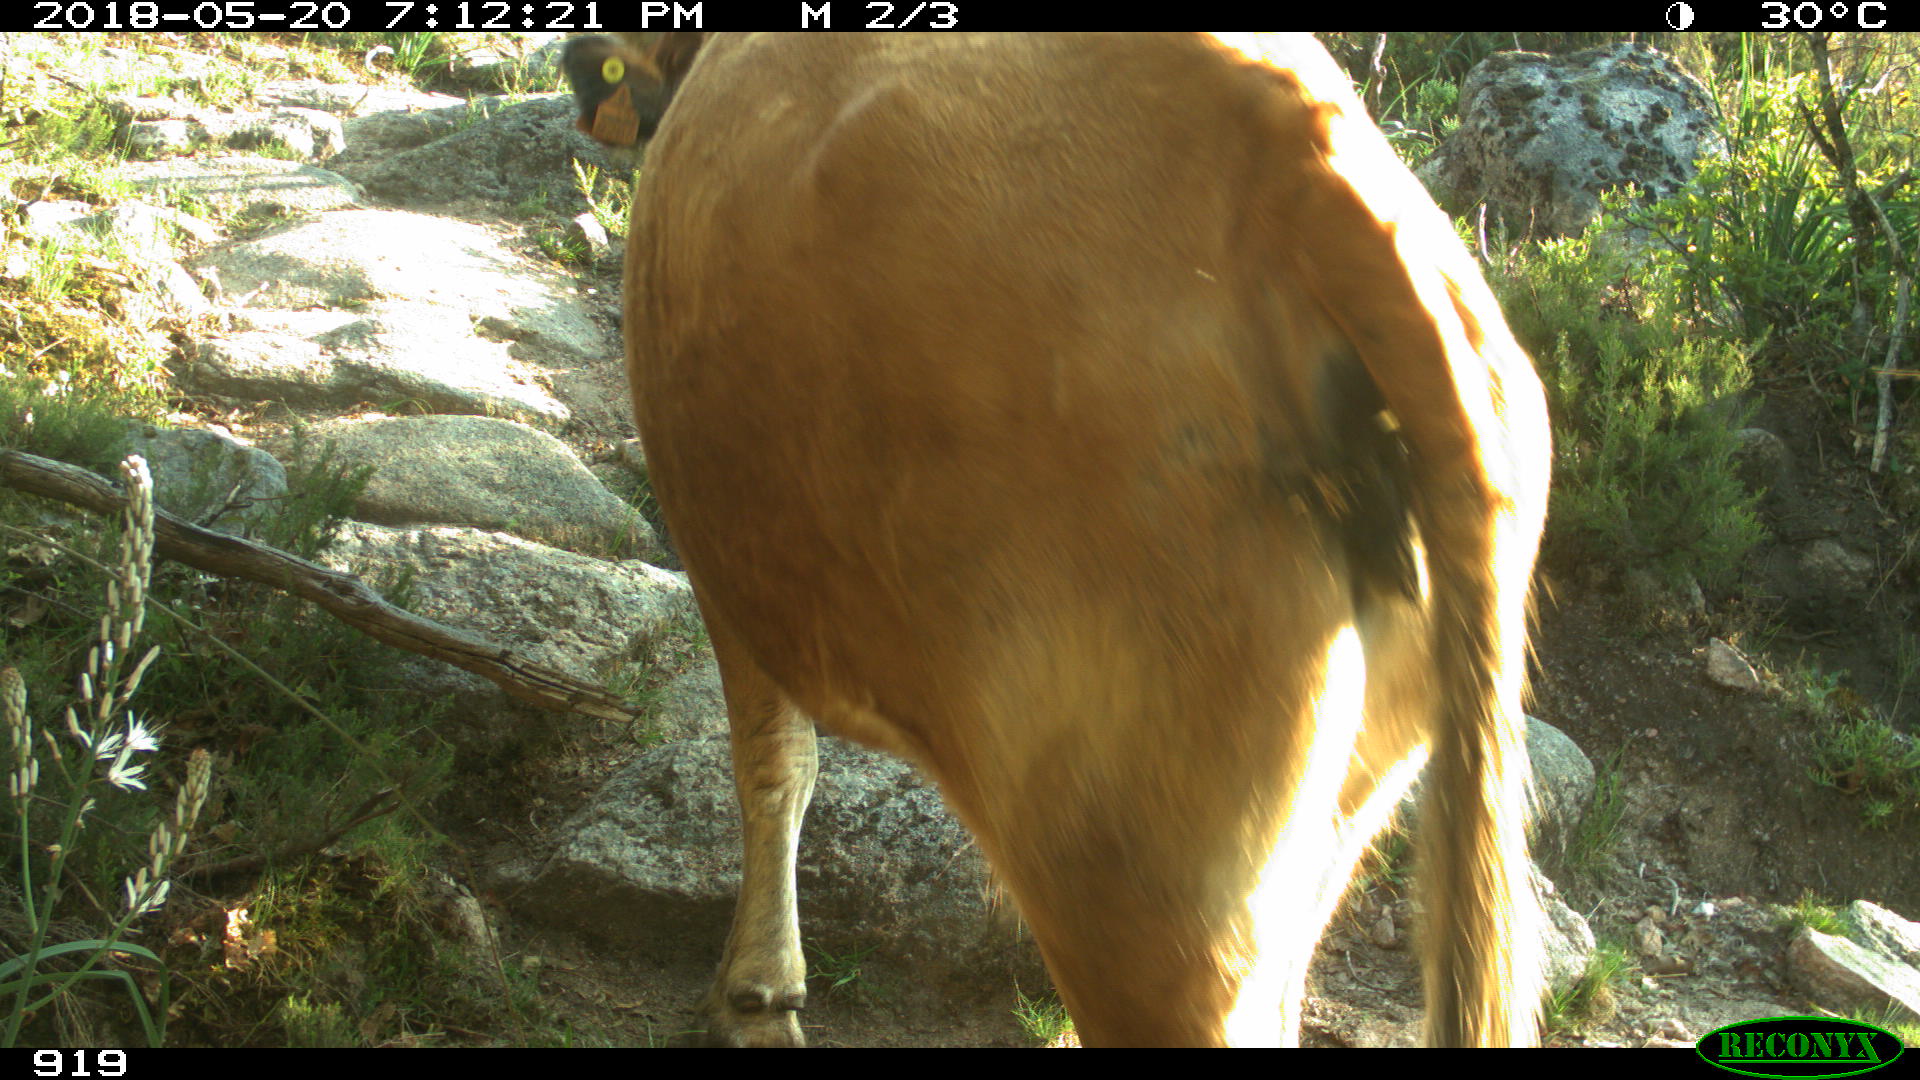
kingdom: Animalia
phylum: Chordata
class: Mammalia
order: Artiodactyla
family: Bovidae
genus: Bos
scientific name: Bos taurus
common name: Domesticated cattle
